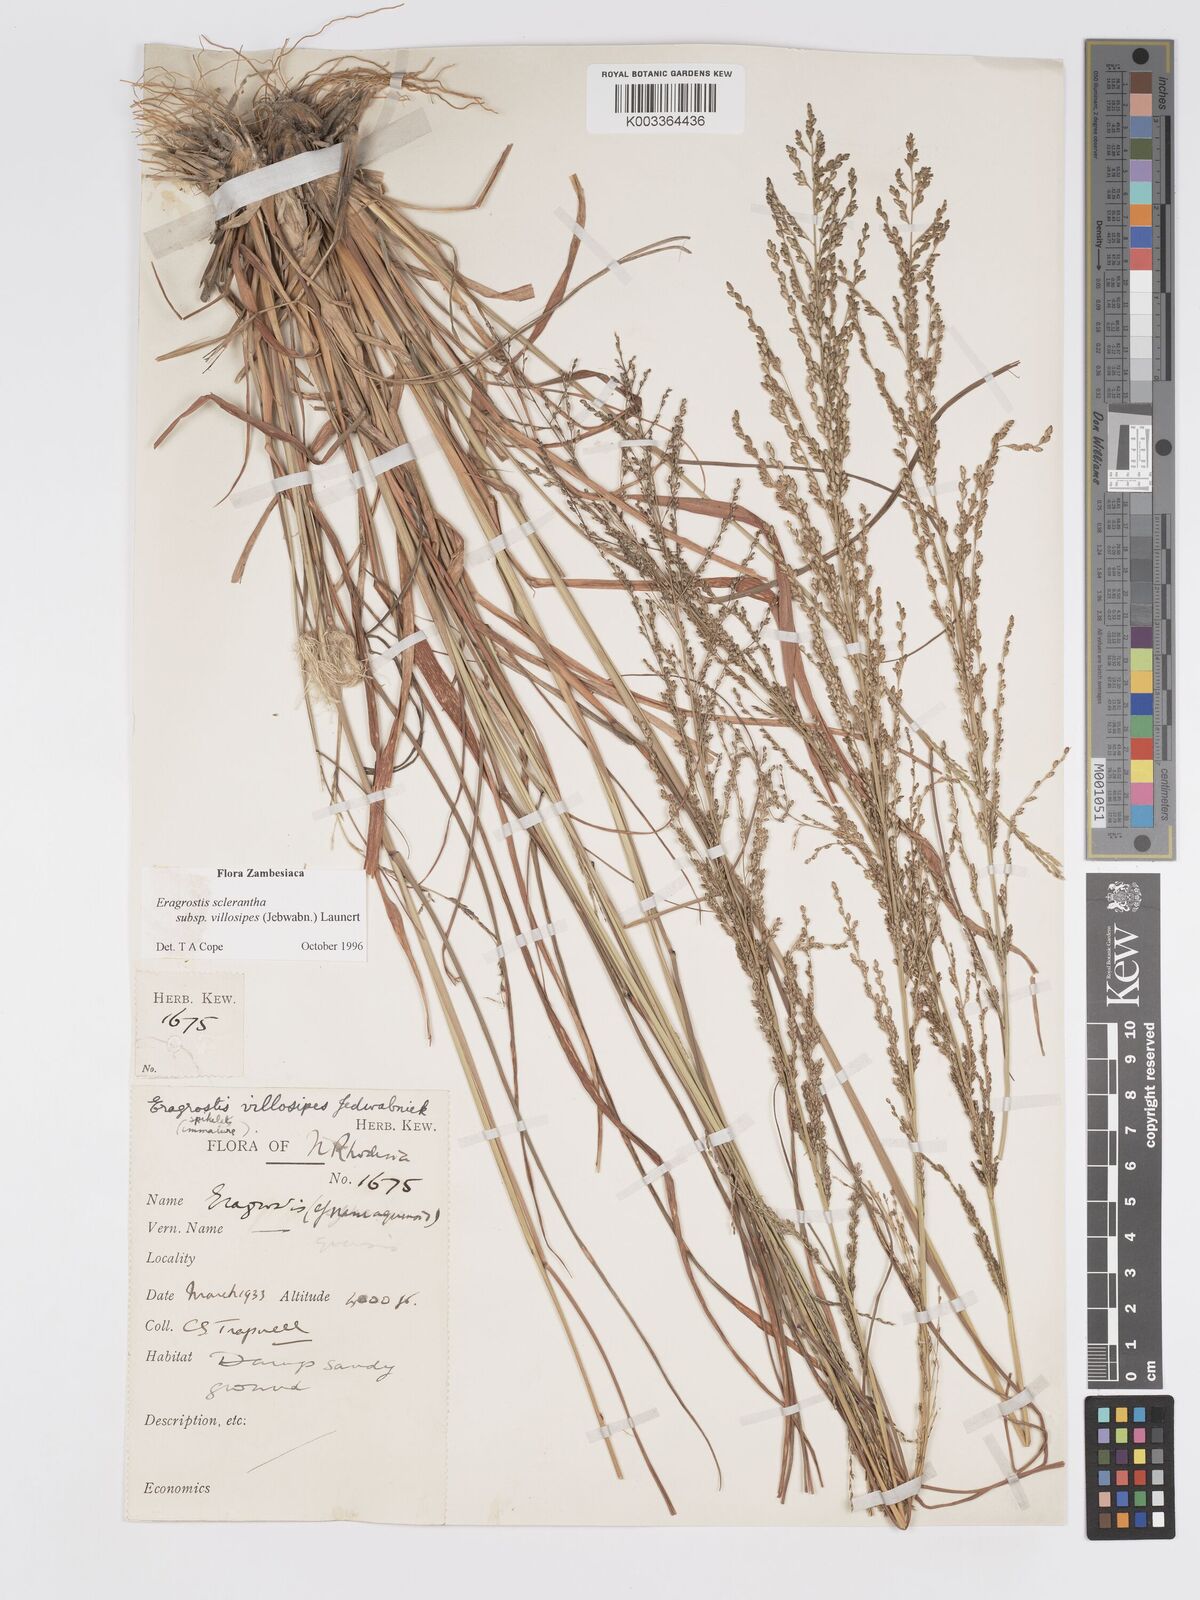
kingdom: Plantae
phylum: Tracheophyta
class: Liliopsida
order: Poales
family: Poaceae
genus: Eragrostis
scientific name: Eragrostis sclerantha
